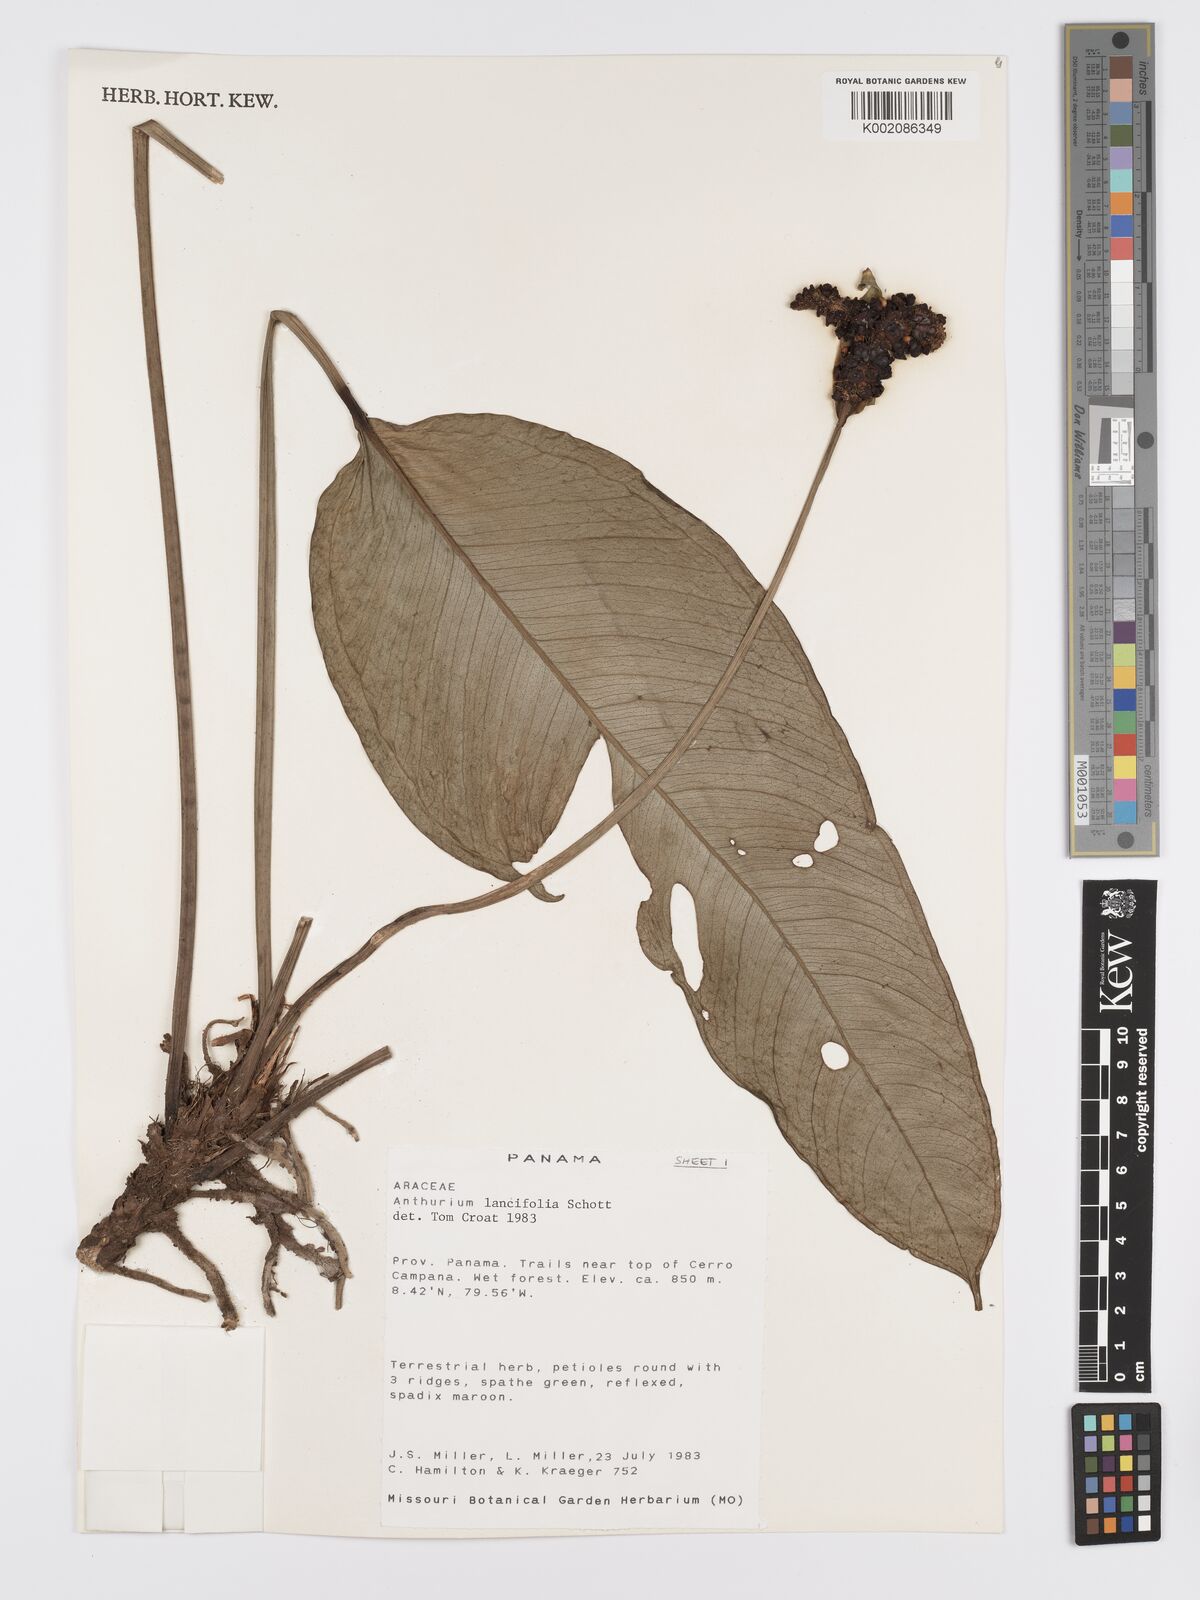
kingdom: Plantae
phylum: Tracheophyta
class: Liliopsida
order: Alismatales
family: Araceae
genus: Anthurium
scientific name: Anthurium lancifolium
